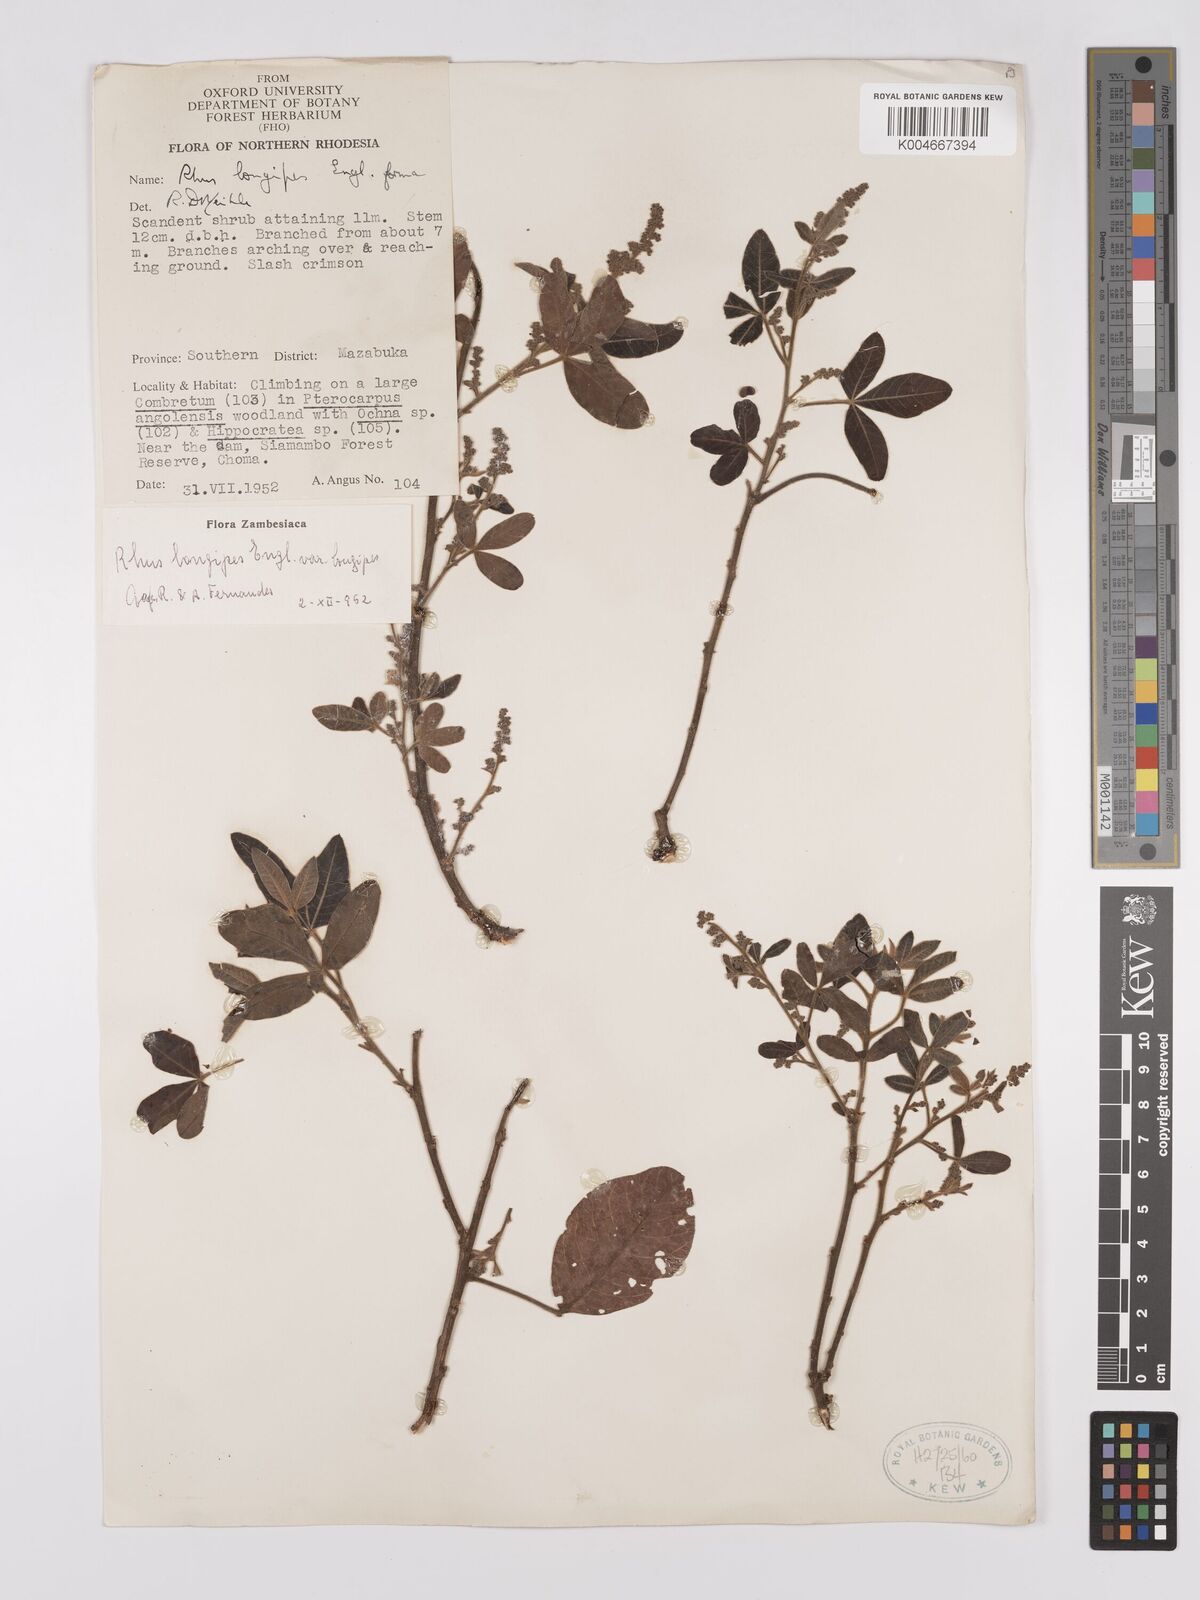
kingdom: Plantae
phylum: Tracheophyta
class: Magnoliopsida
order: Sapindales
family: Anacardiaceae
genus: Searsia
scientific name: Searsia longipes
